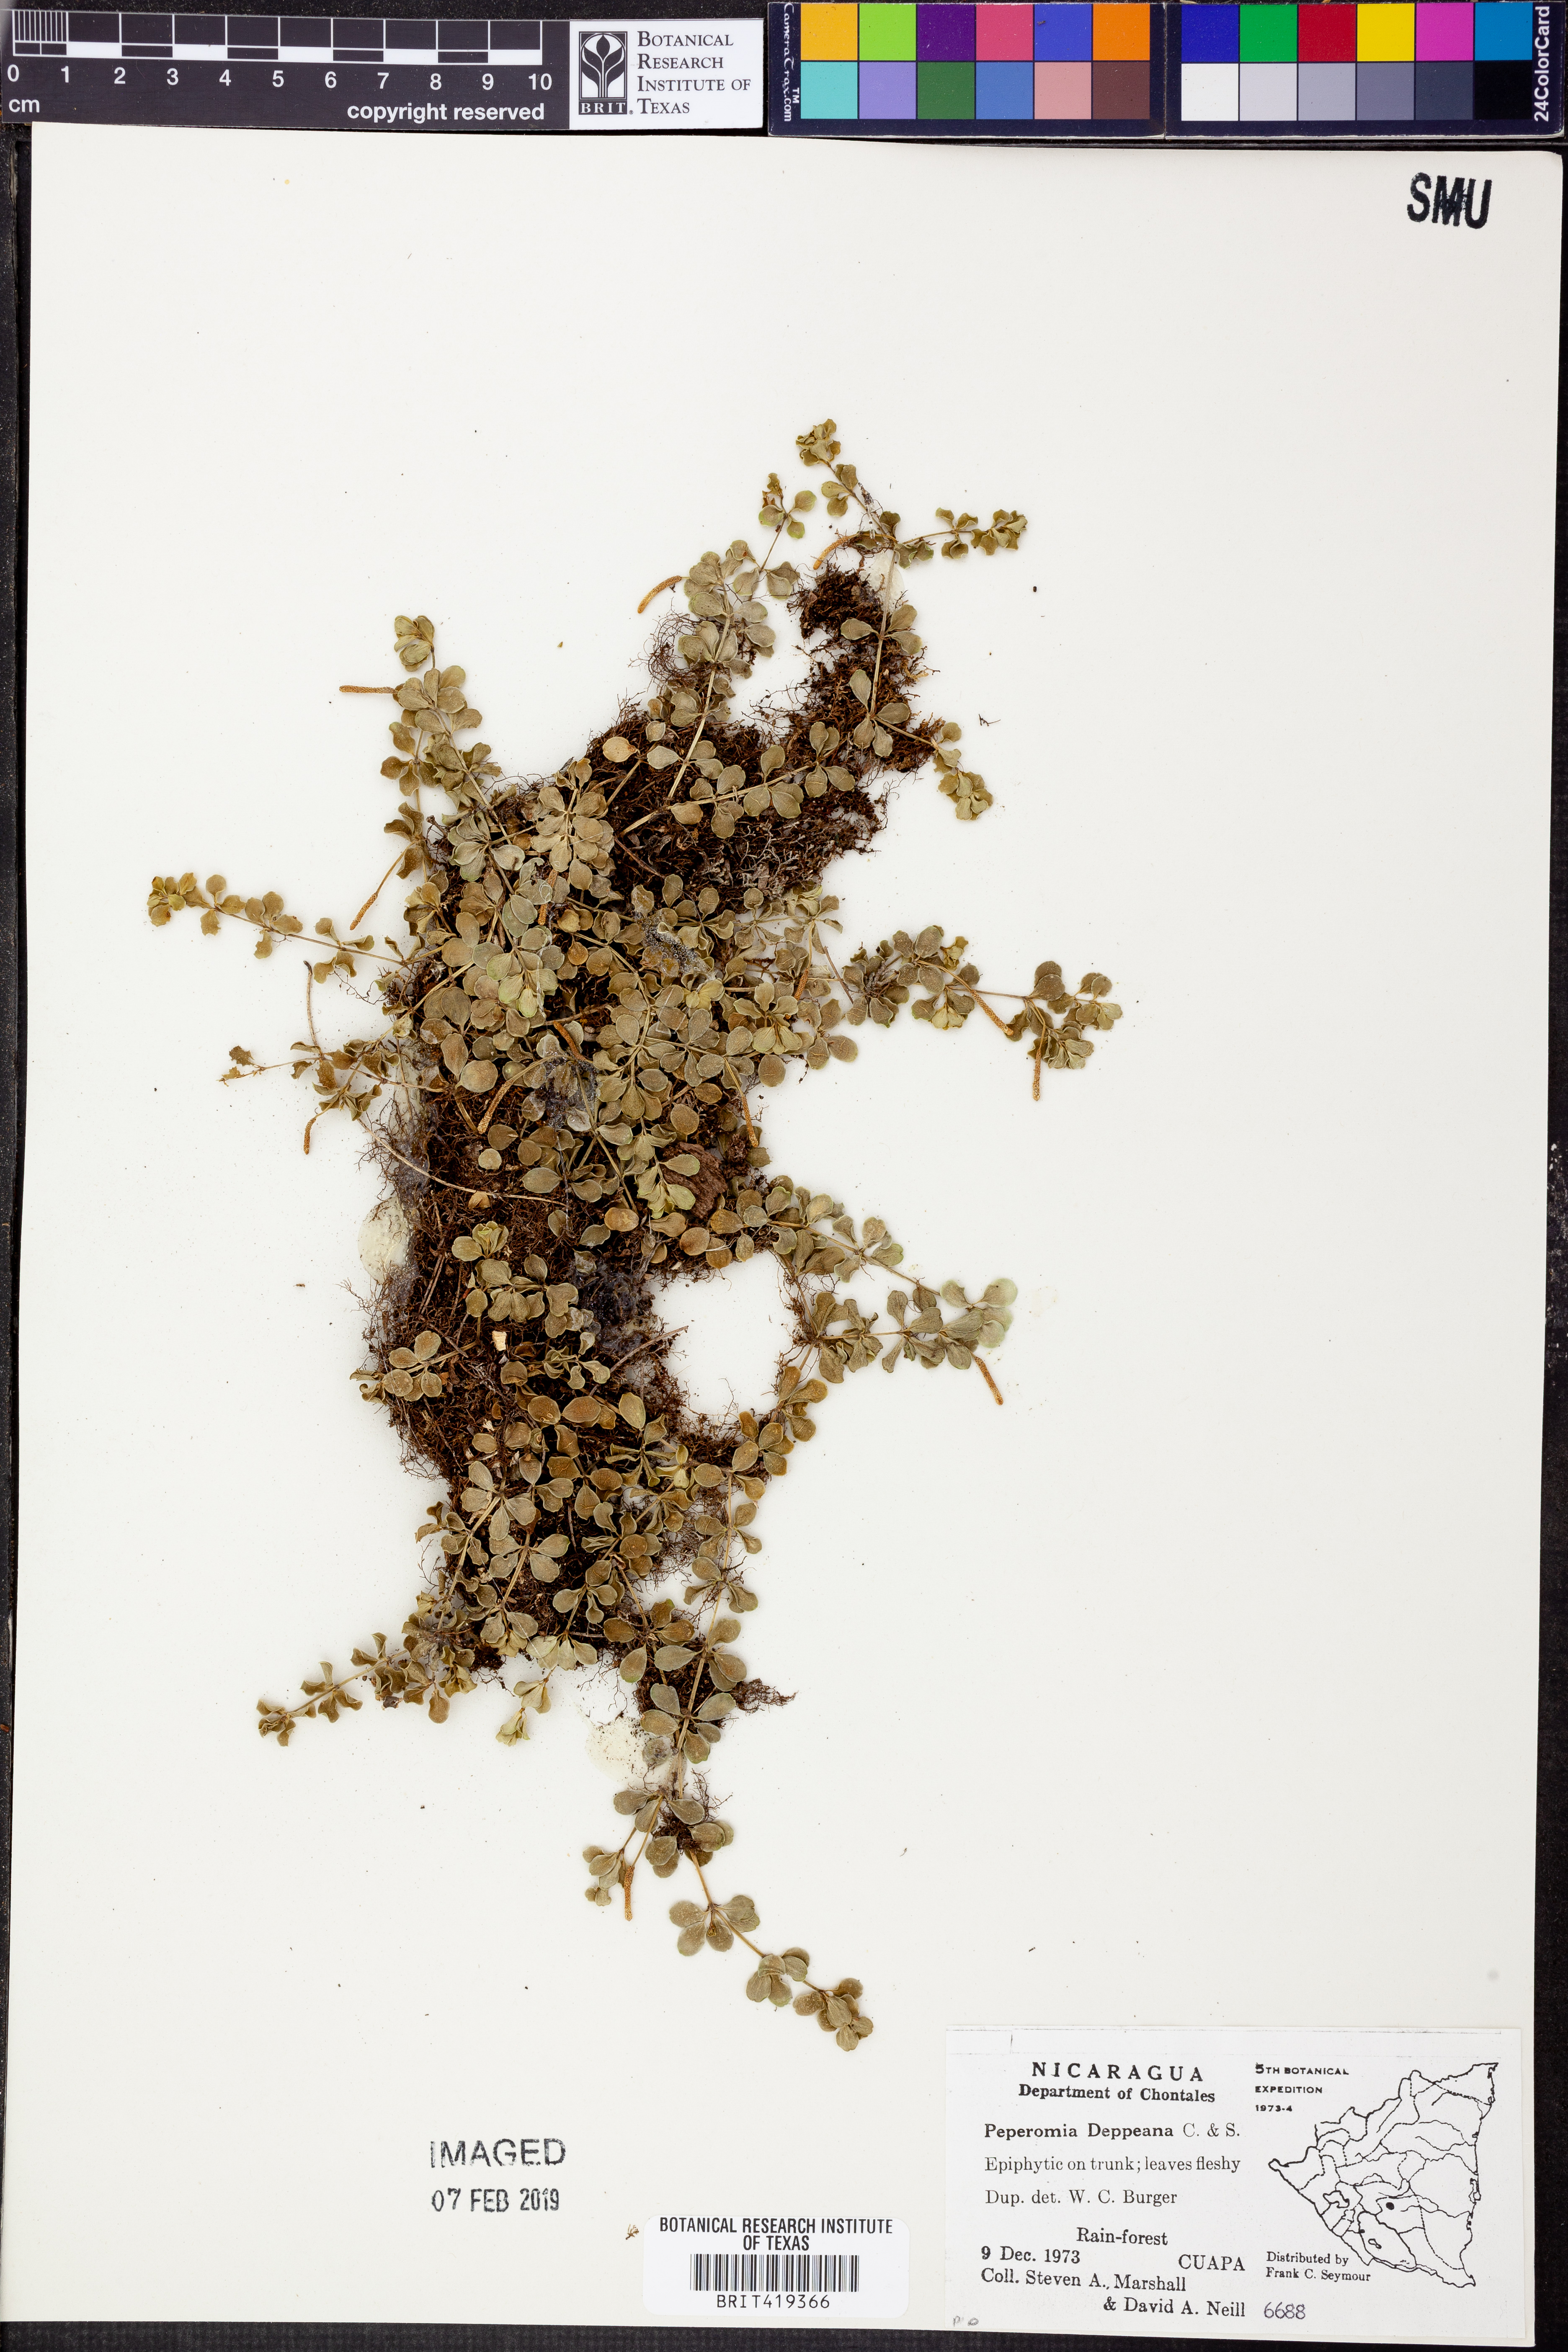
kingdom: Plantae
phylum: Tracheophyta
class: Magnoliopsida
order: Piperales
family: Piperaceae
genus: Peperomia
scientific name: Peperomia deppeana
